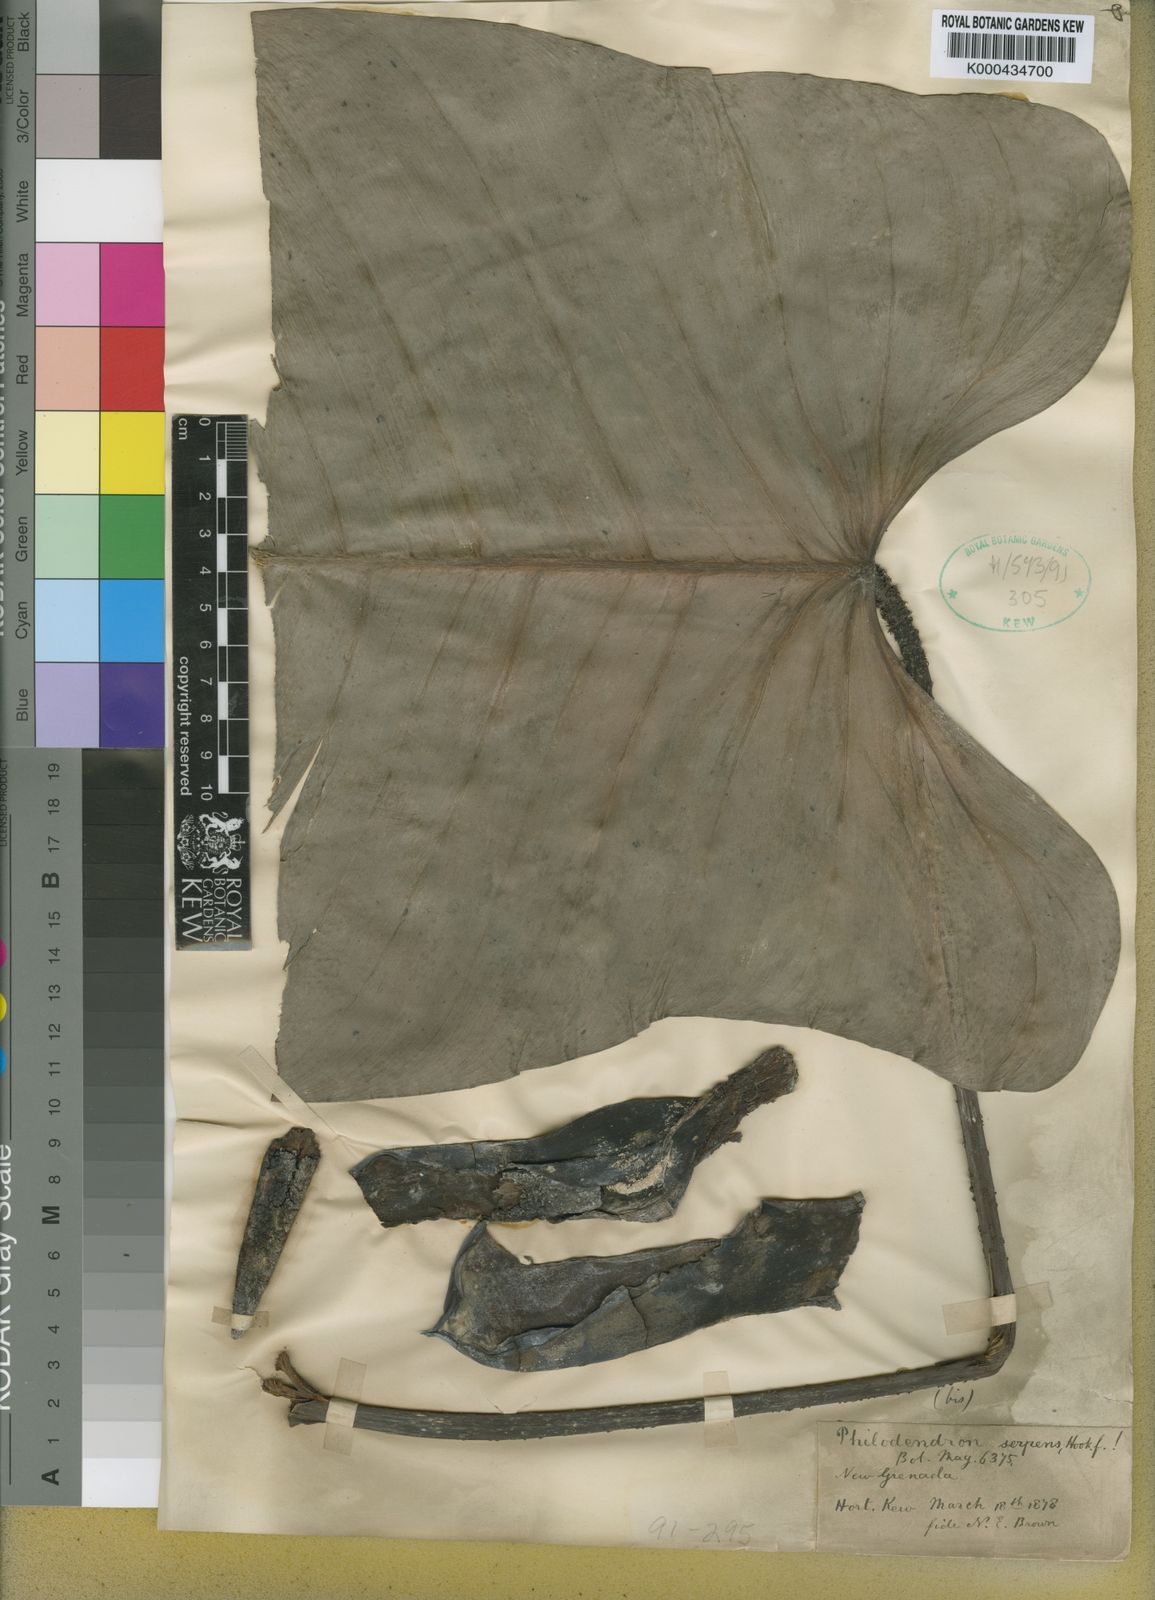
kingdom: Plantae
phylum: Tracheophyta
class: Liliopsida
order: Alismatales
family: Araceae
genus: Philodendron
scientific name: Philodendron serpens
